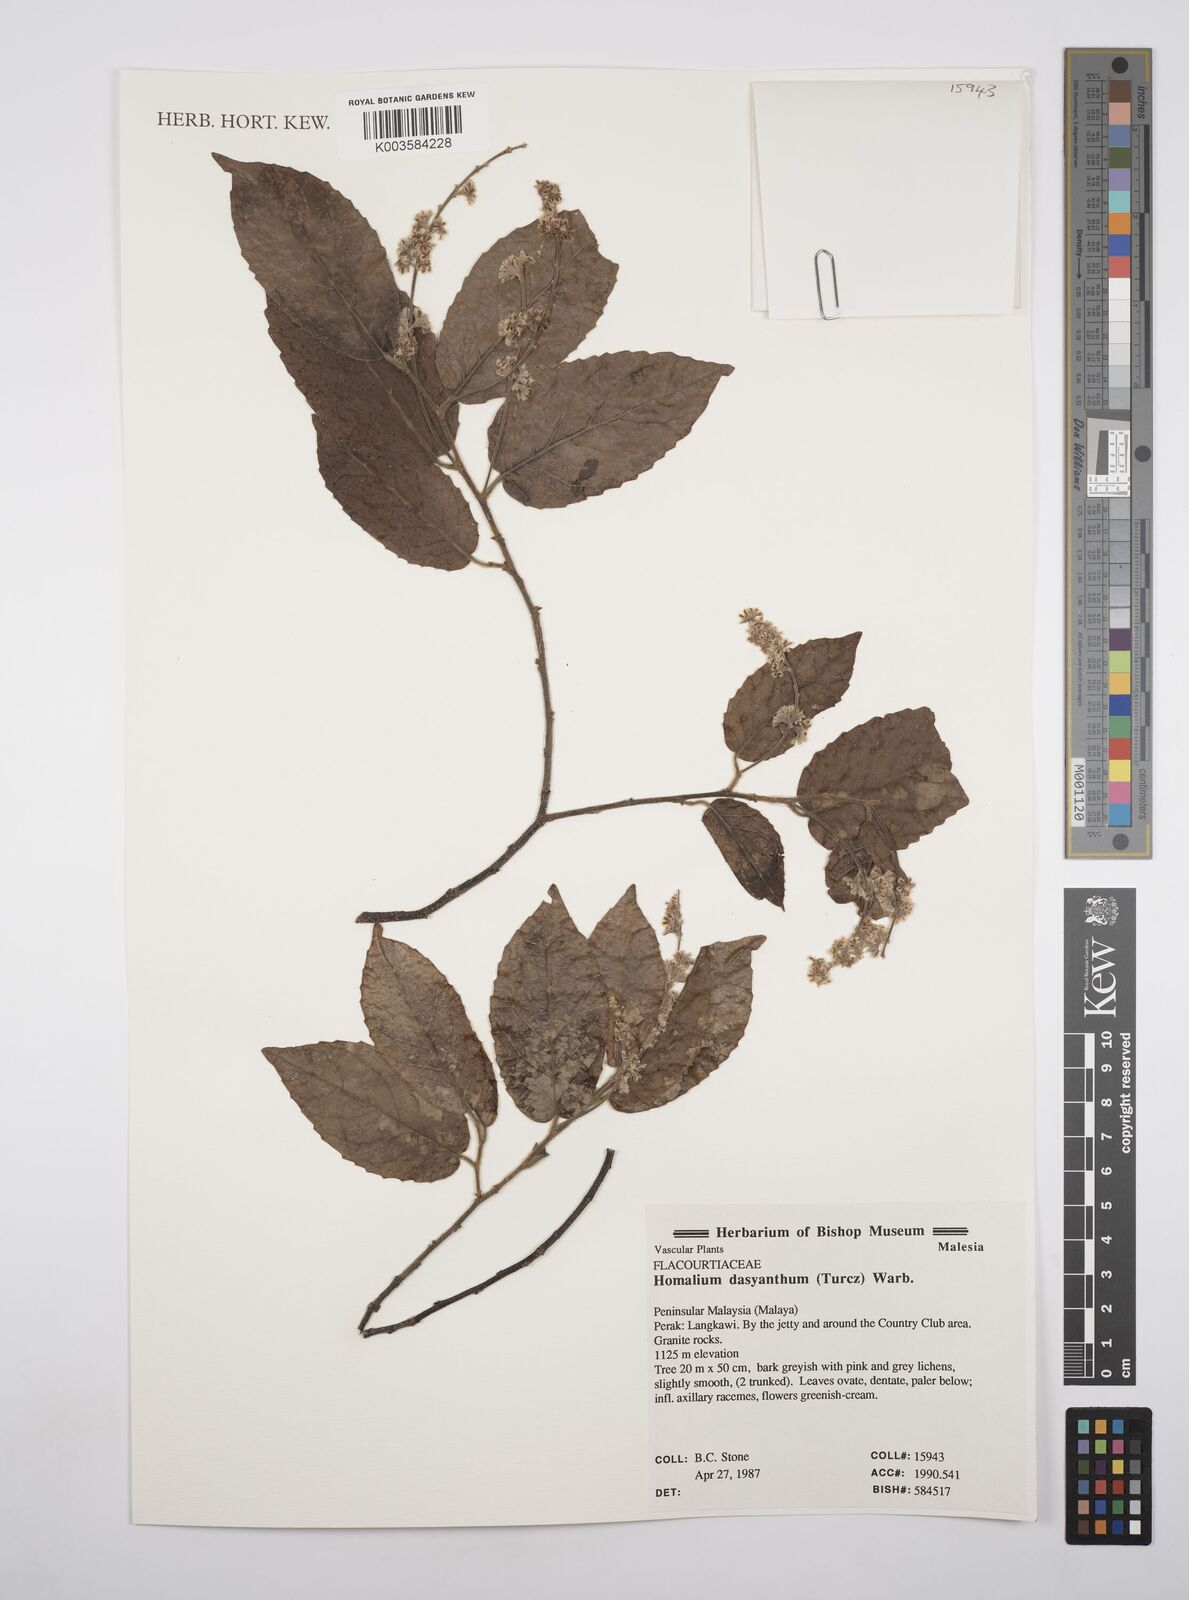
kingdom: Plantae
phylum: Tracheophyta
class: Magnoliopsida
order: Malpighiales
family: Salicaceae
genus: Homalium
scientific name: Homalium dasyanthum
